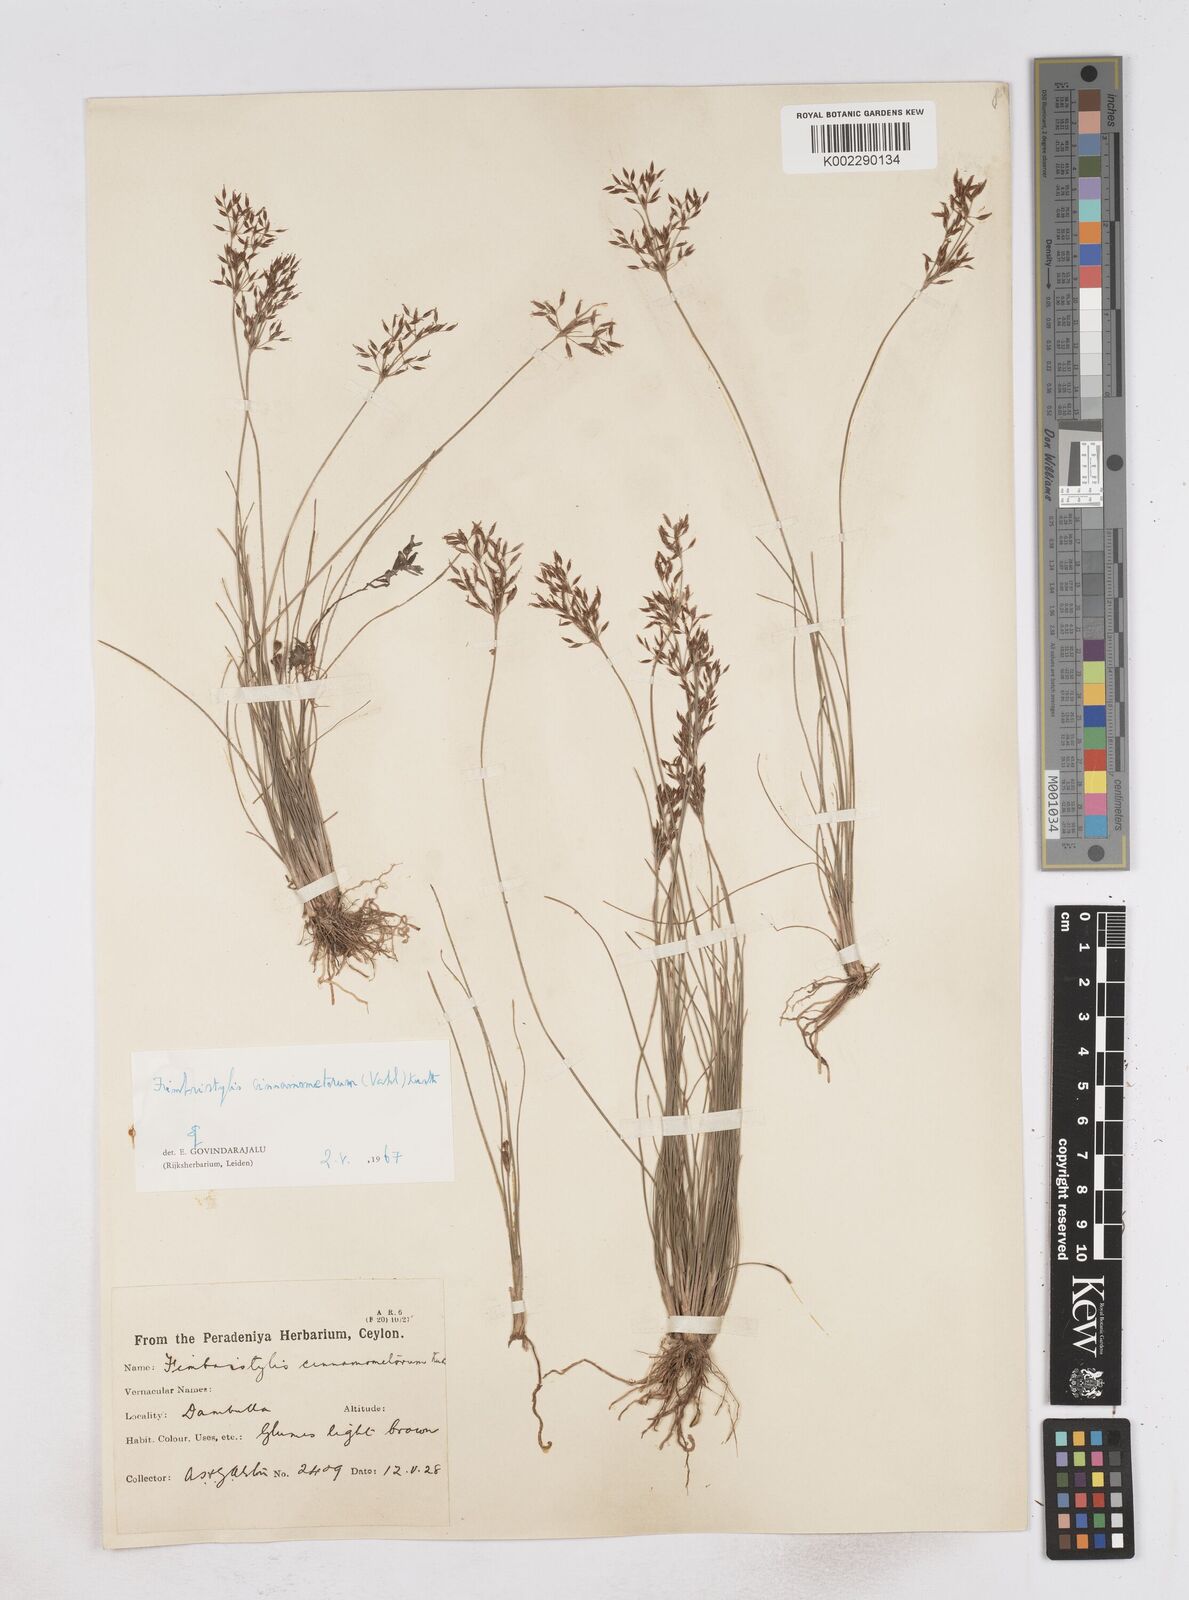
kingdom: Plantae
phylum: Tracheophyta
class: Liliopsida
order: Poales
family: Cyperaceae
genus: Fimbristylis
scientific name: Fimbristylis cinnamometorum
